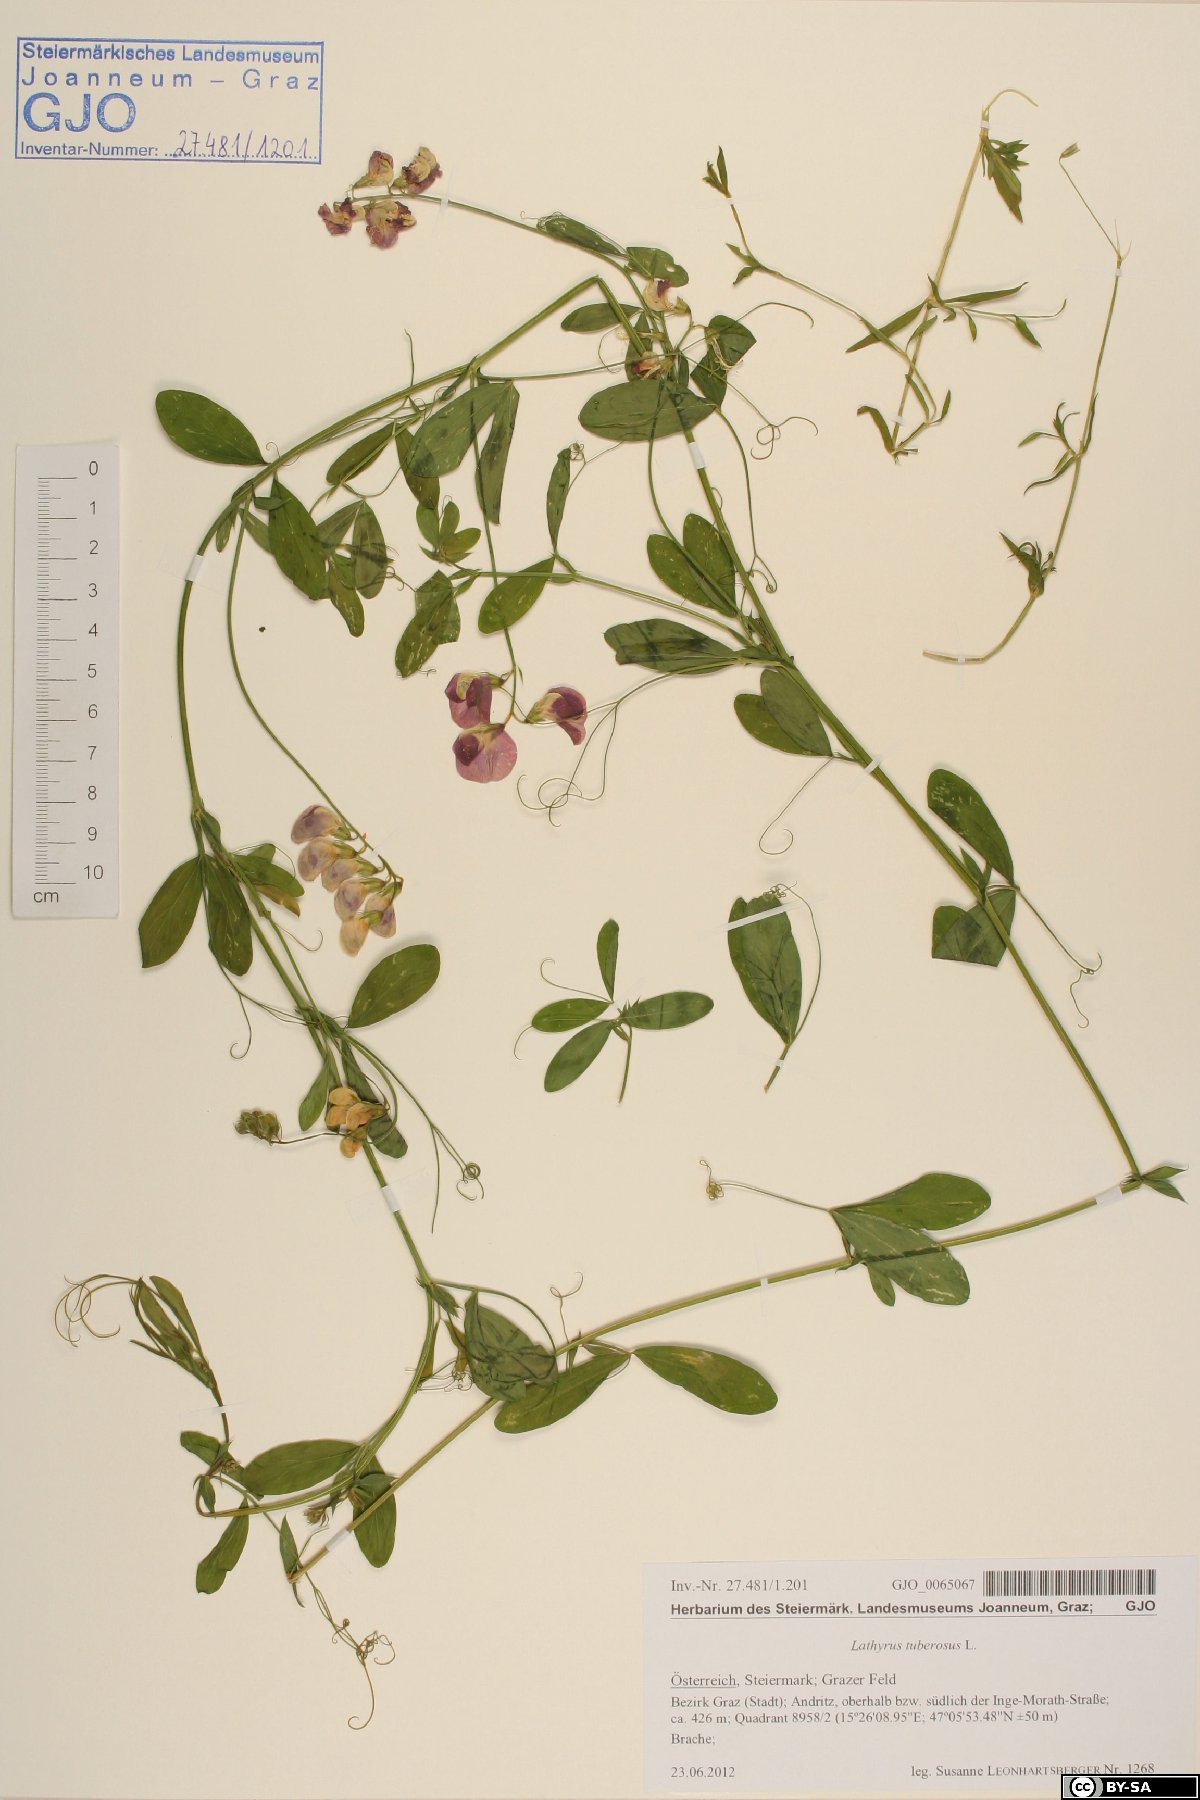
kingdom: Plantae
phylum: Tracheophyta
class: Magnoliopsida
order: Fabales
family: Fabaceae
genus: Lathyrus
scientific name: Lathyrus tuberosus
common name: Tuberous pea
